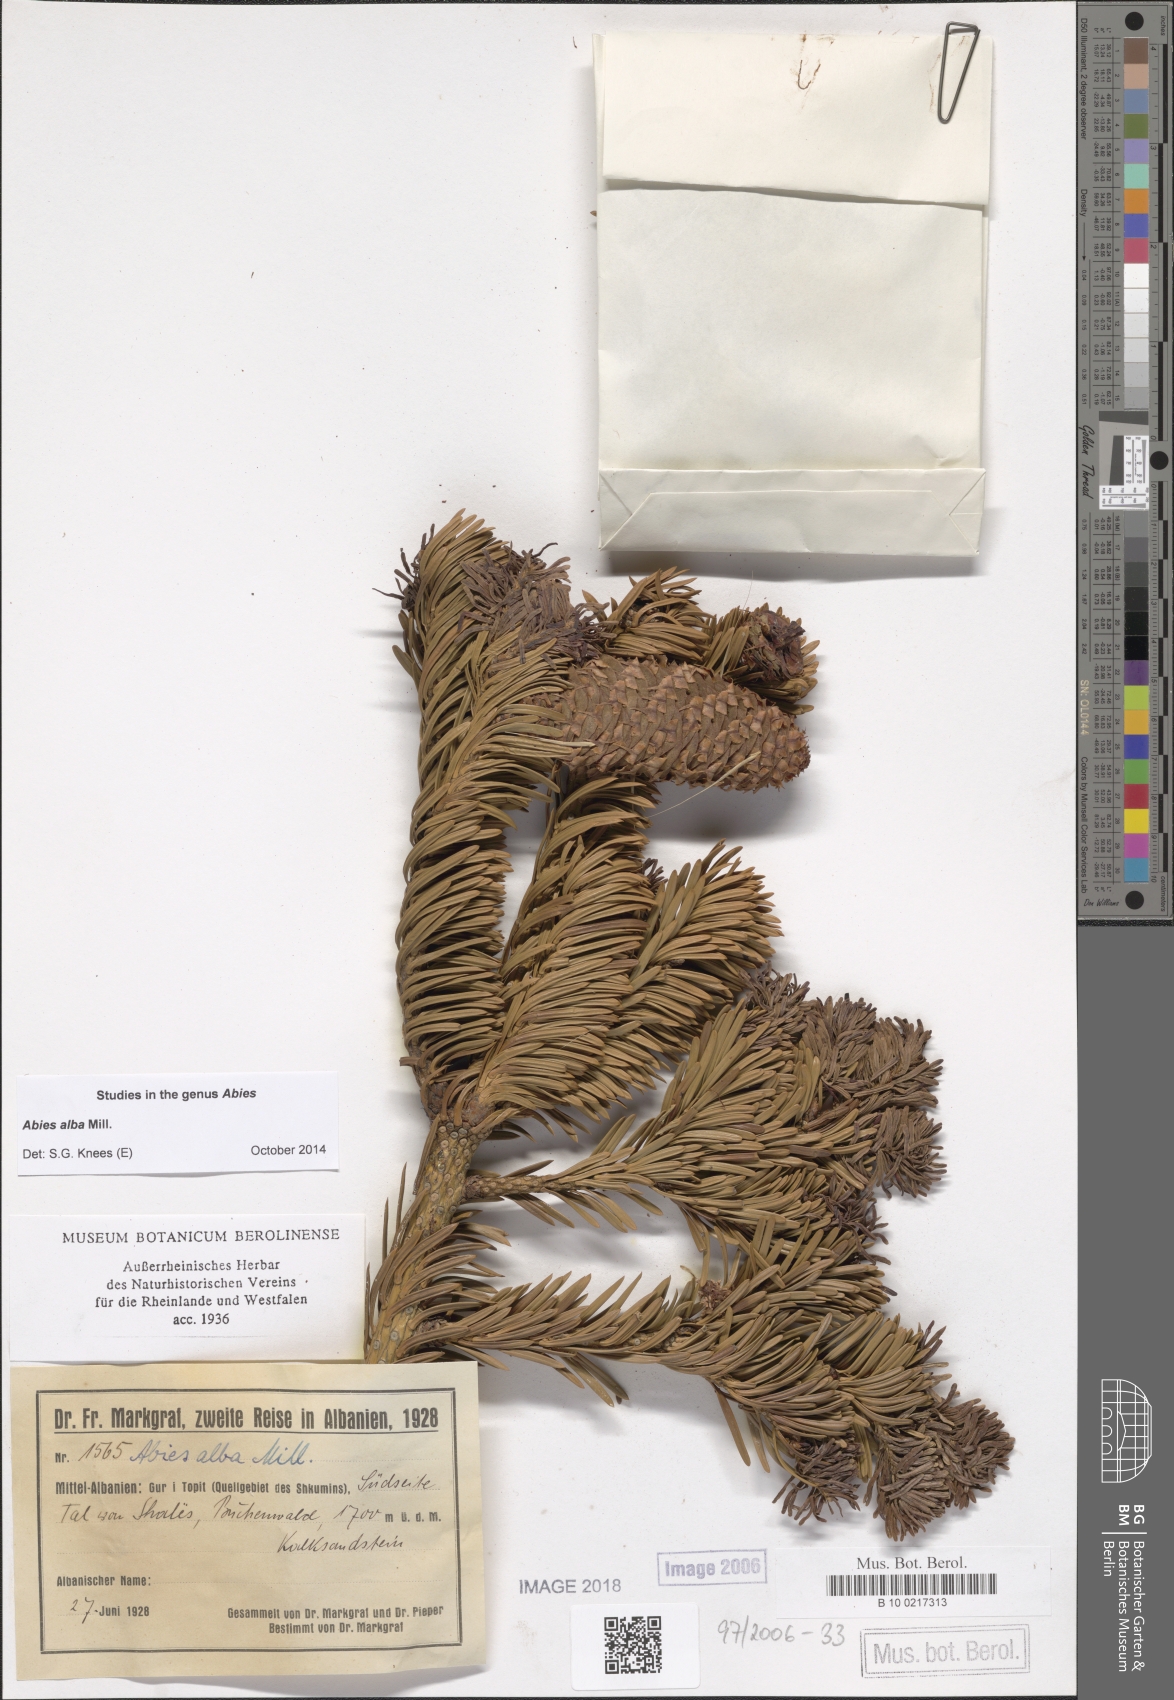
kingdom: Plantae
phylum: Tracheophyta
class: Pinopsida
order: Pinales
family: Pinaceae
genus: Abies
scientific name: Abies alba
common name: Silver fir
